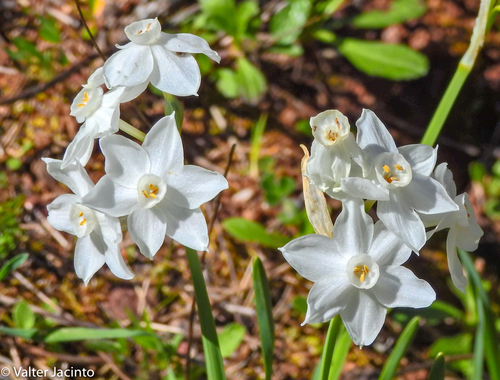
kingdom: Plantae
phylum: Tracheophyta
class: Liliopsida
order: Asparagales
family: Amaryllidaceae
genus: Narcissus
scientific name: Narcissus papyraceus
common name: Paper-white daffodil
